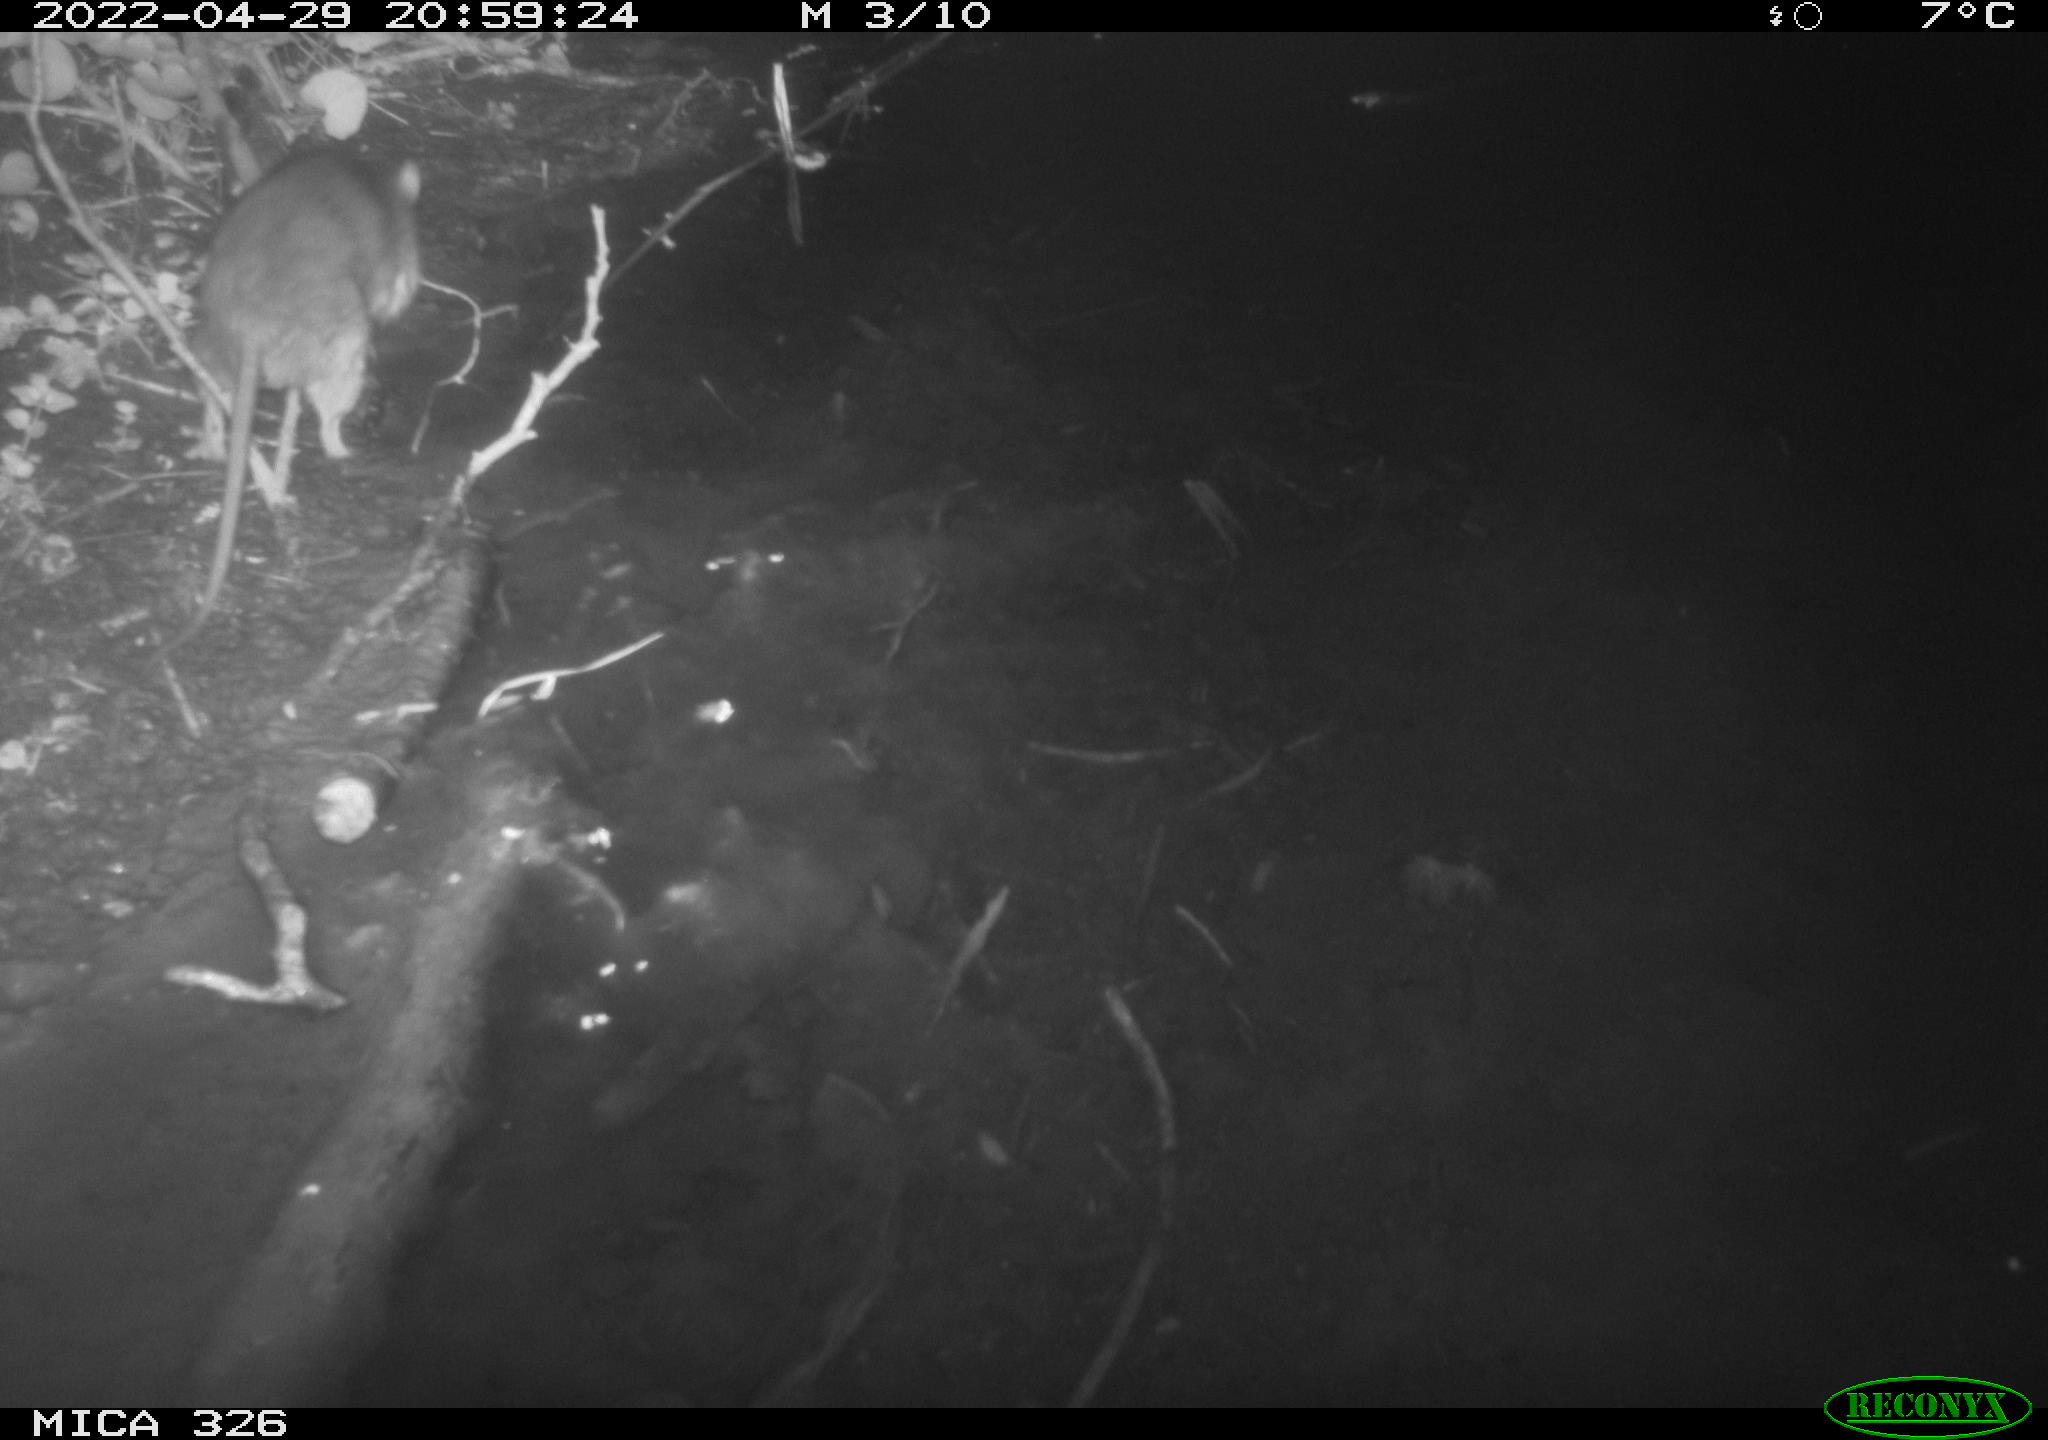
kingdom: Animalia
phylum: Chordata
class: Mammalia
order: Rodentia
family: Muridae
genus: Rattus
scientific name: Rattus norvegicus
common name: Brown rat
